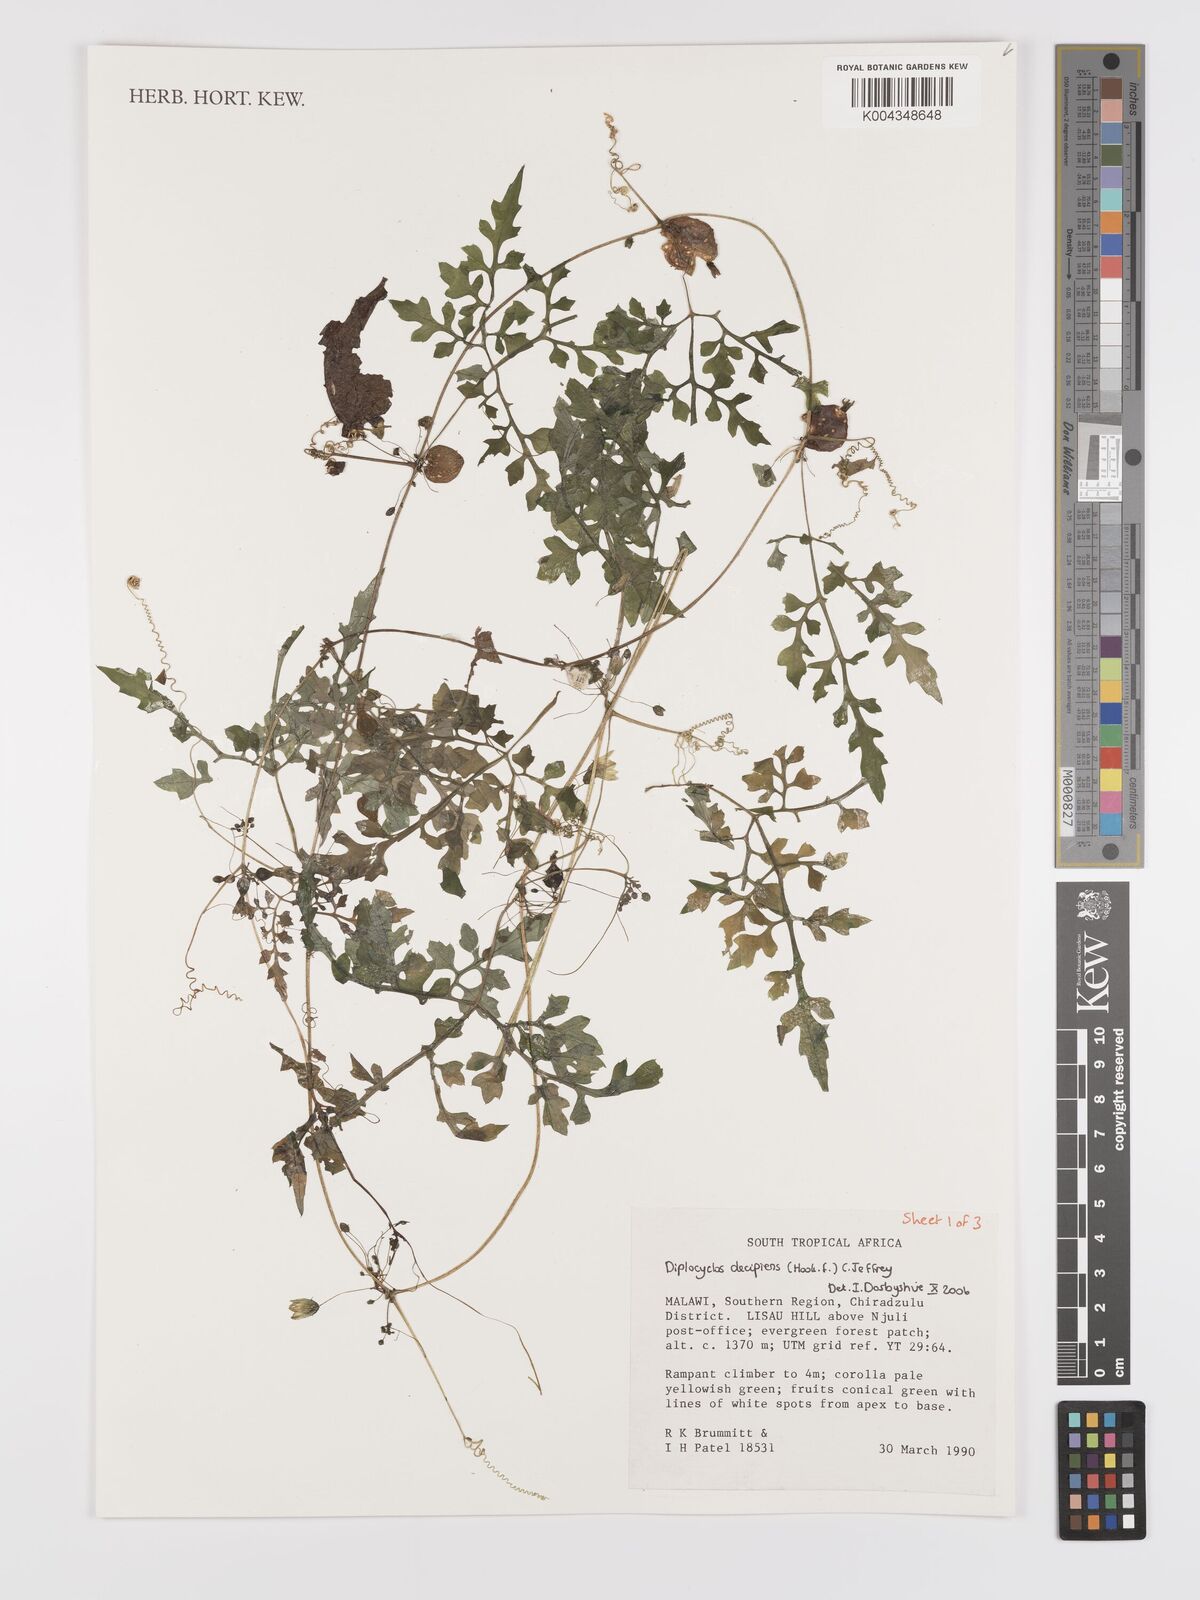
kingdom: Plantae
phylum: Tracheophyta
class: Magnoliopsida
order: Cucurbitales
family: Cucurbitaceae
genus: Diplocyclos
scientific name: Diplocyclos decipiens
